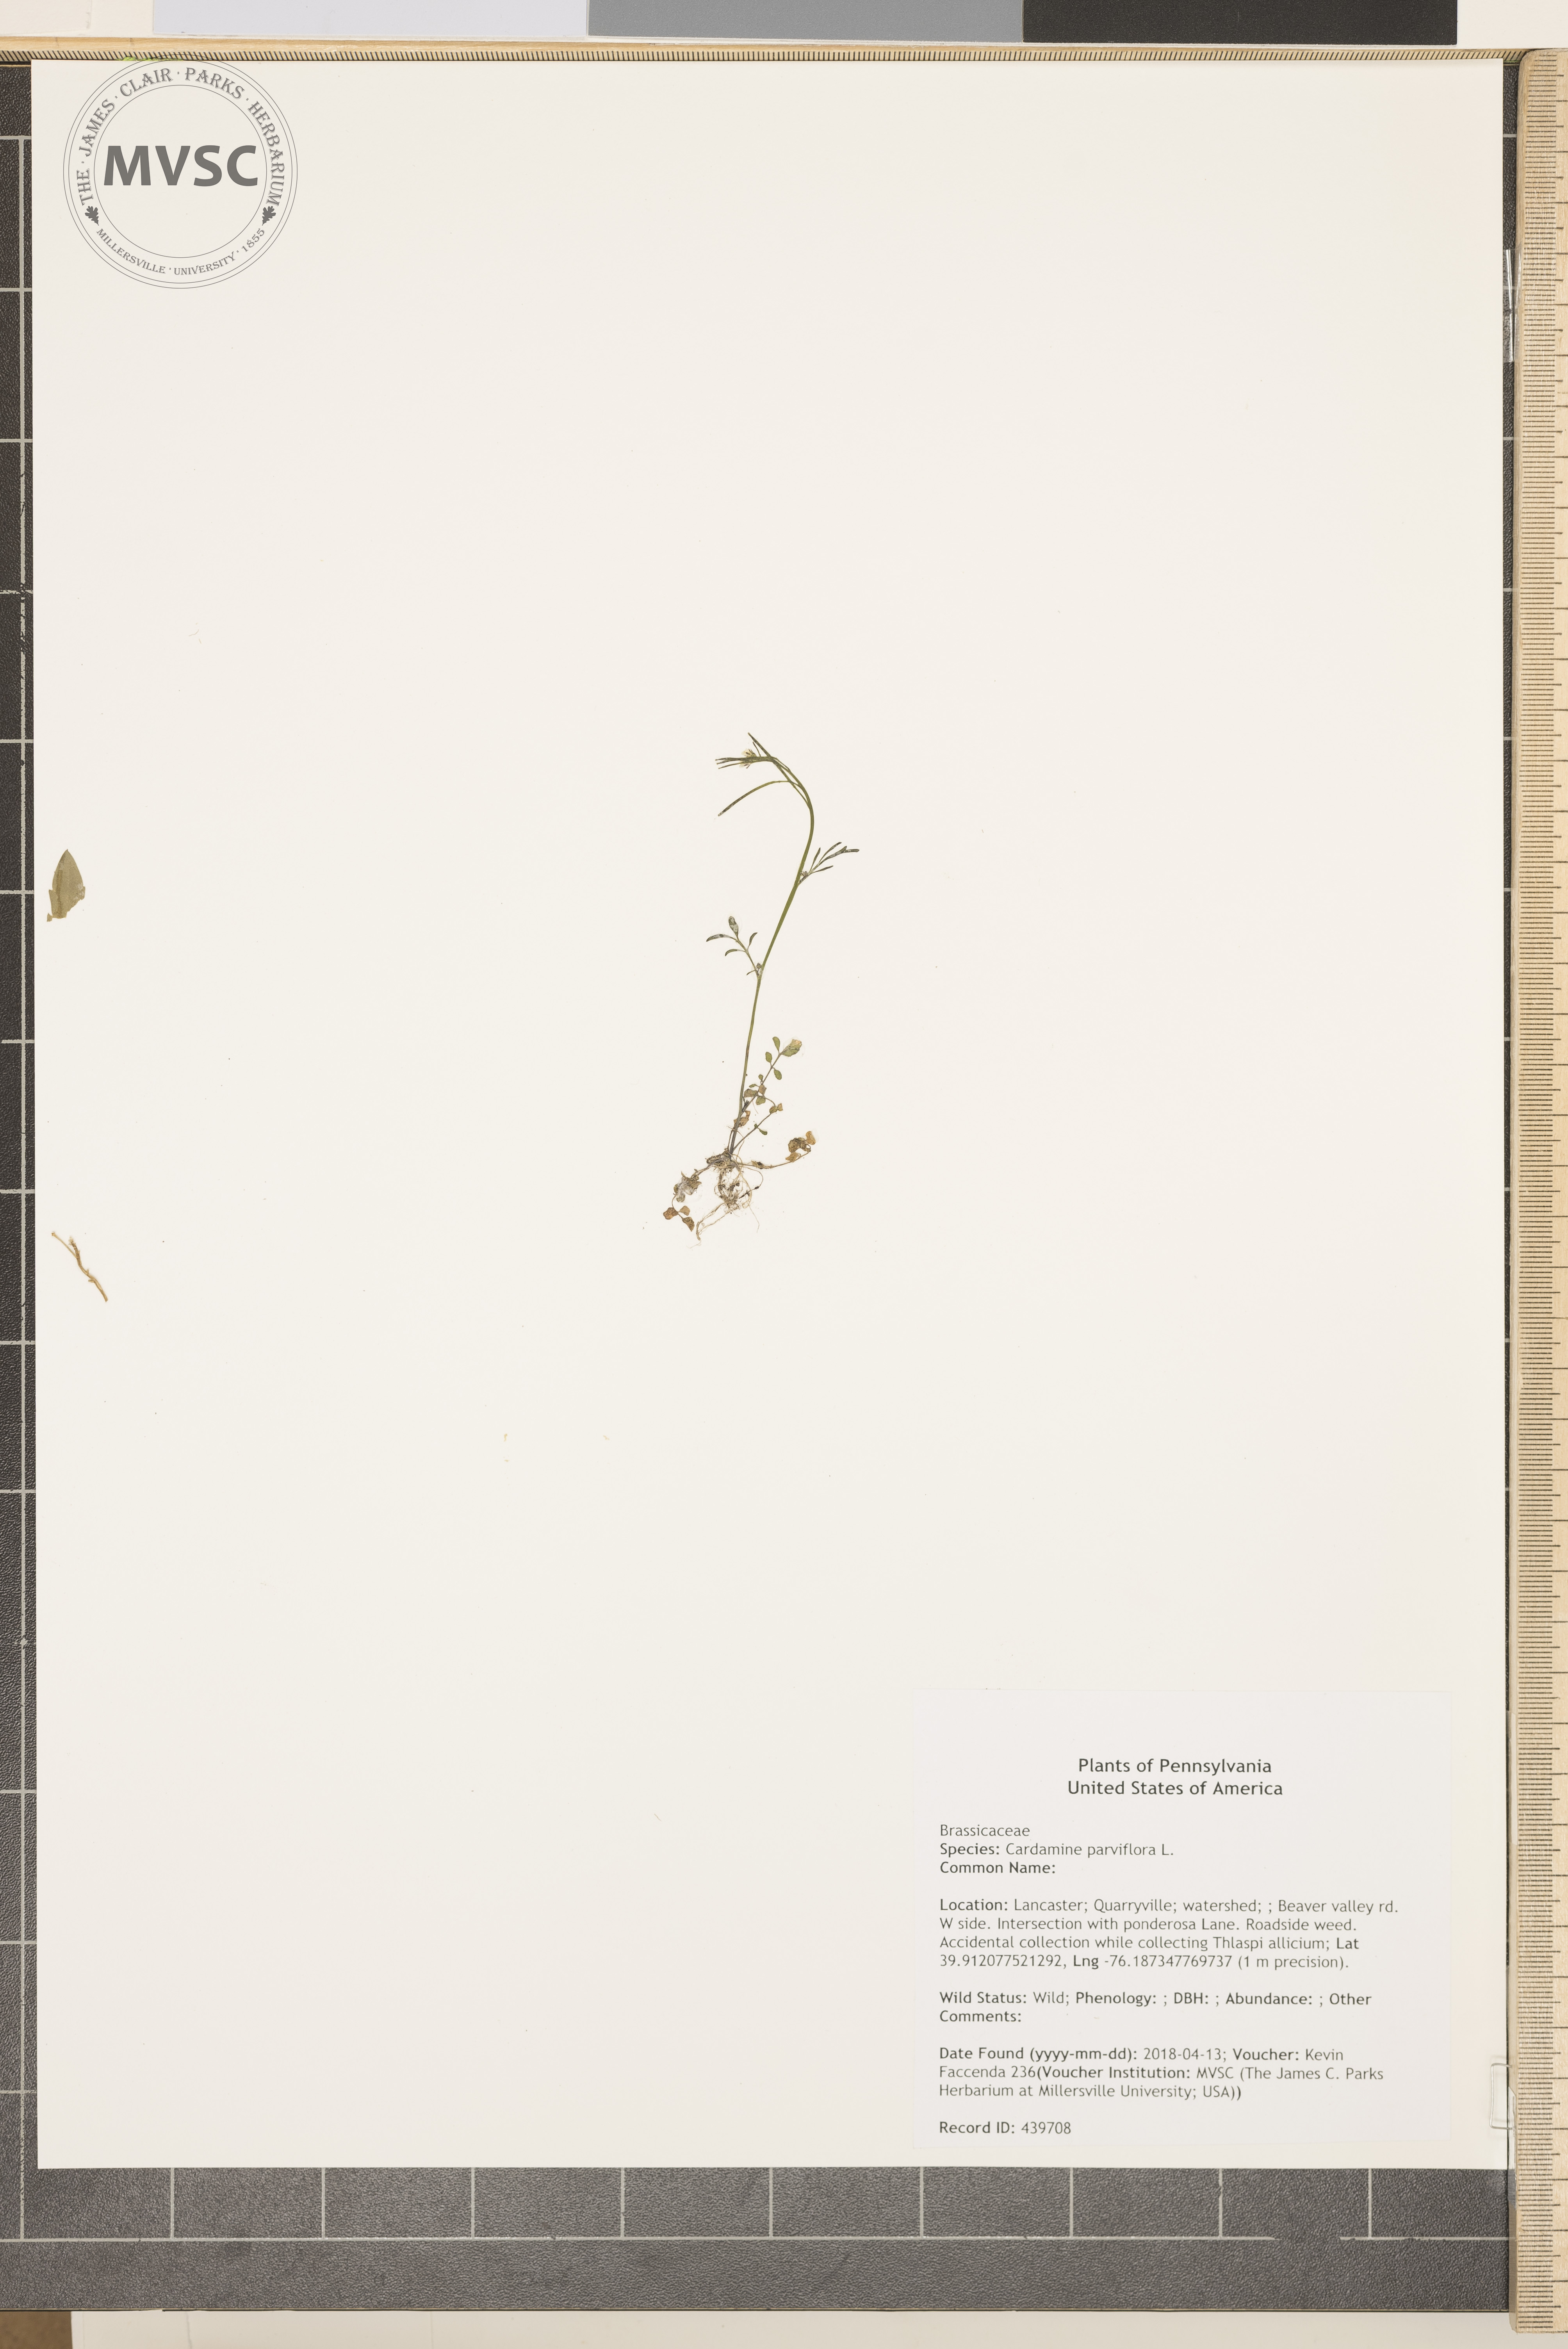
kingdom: Plantae
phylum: Tracheophyta
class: Magnoliopsida
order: Brassicales
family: Brassicaceae
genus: Cardamine
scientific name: Cardamine parviflora
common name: Sand bittercress
